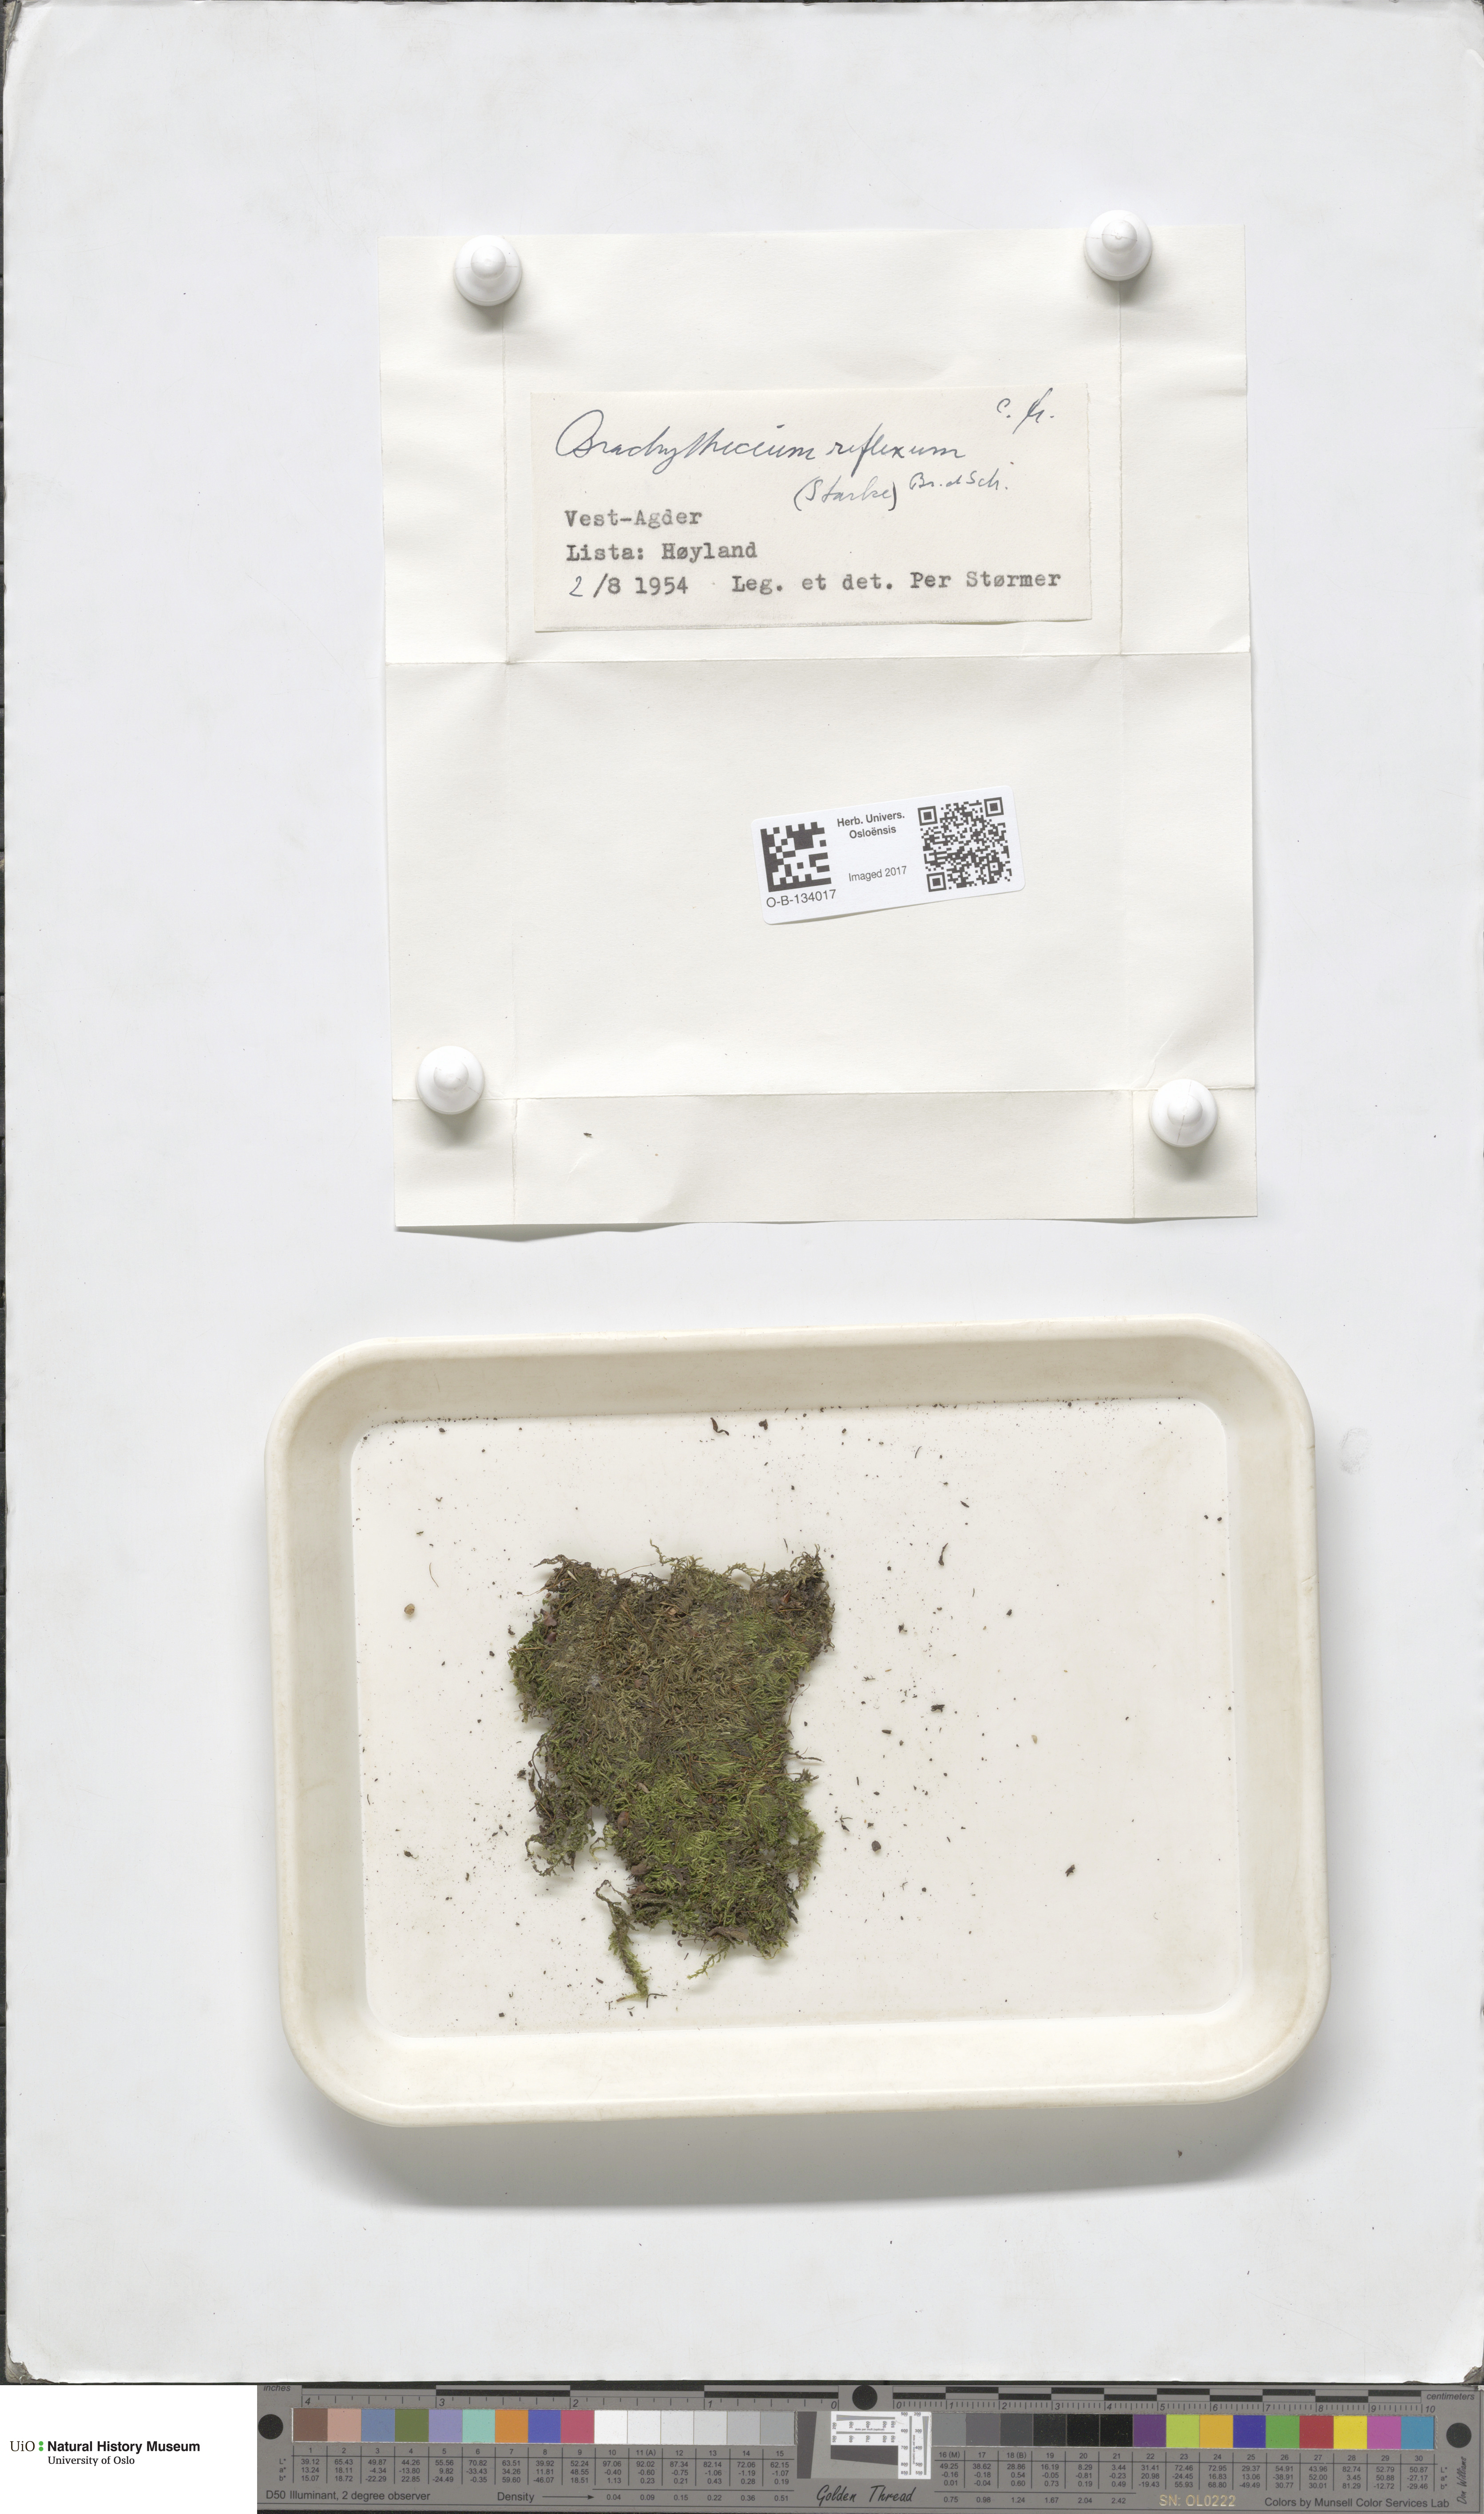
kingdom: Plantae
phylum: Bryophyta
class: Bryopsida
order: Hypnales
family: Brachytheciaceae
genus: Sciuro-hypnum
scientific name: Sciuro-hypnum reflexum
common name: Reflexed feather-moss
